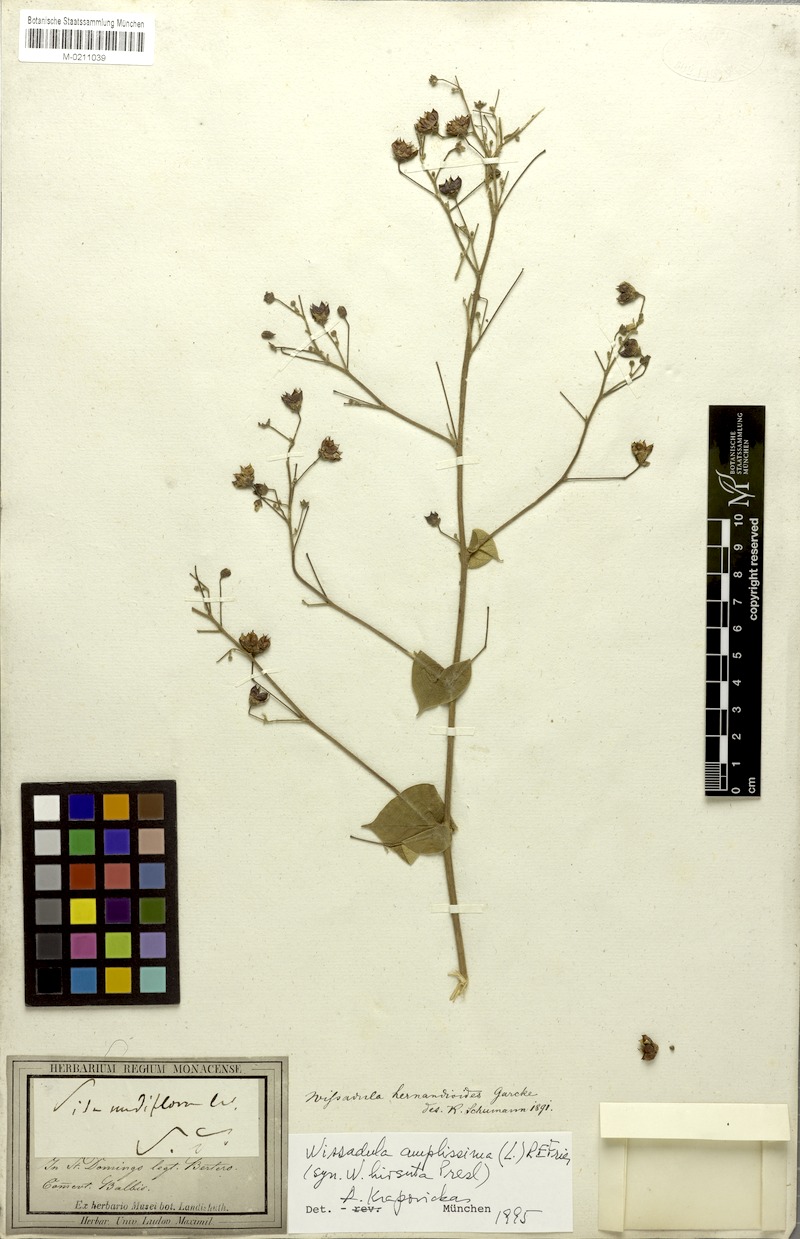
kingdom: Plantae
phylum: Tracheophyta
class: Magnoliopsida
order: Malvales
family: Malvaceae
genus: Wissadula
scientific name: Wissadula amplissima
